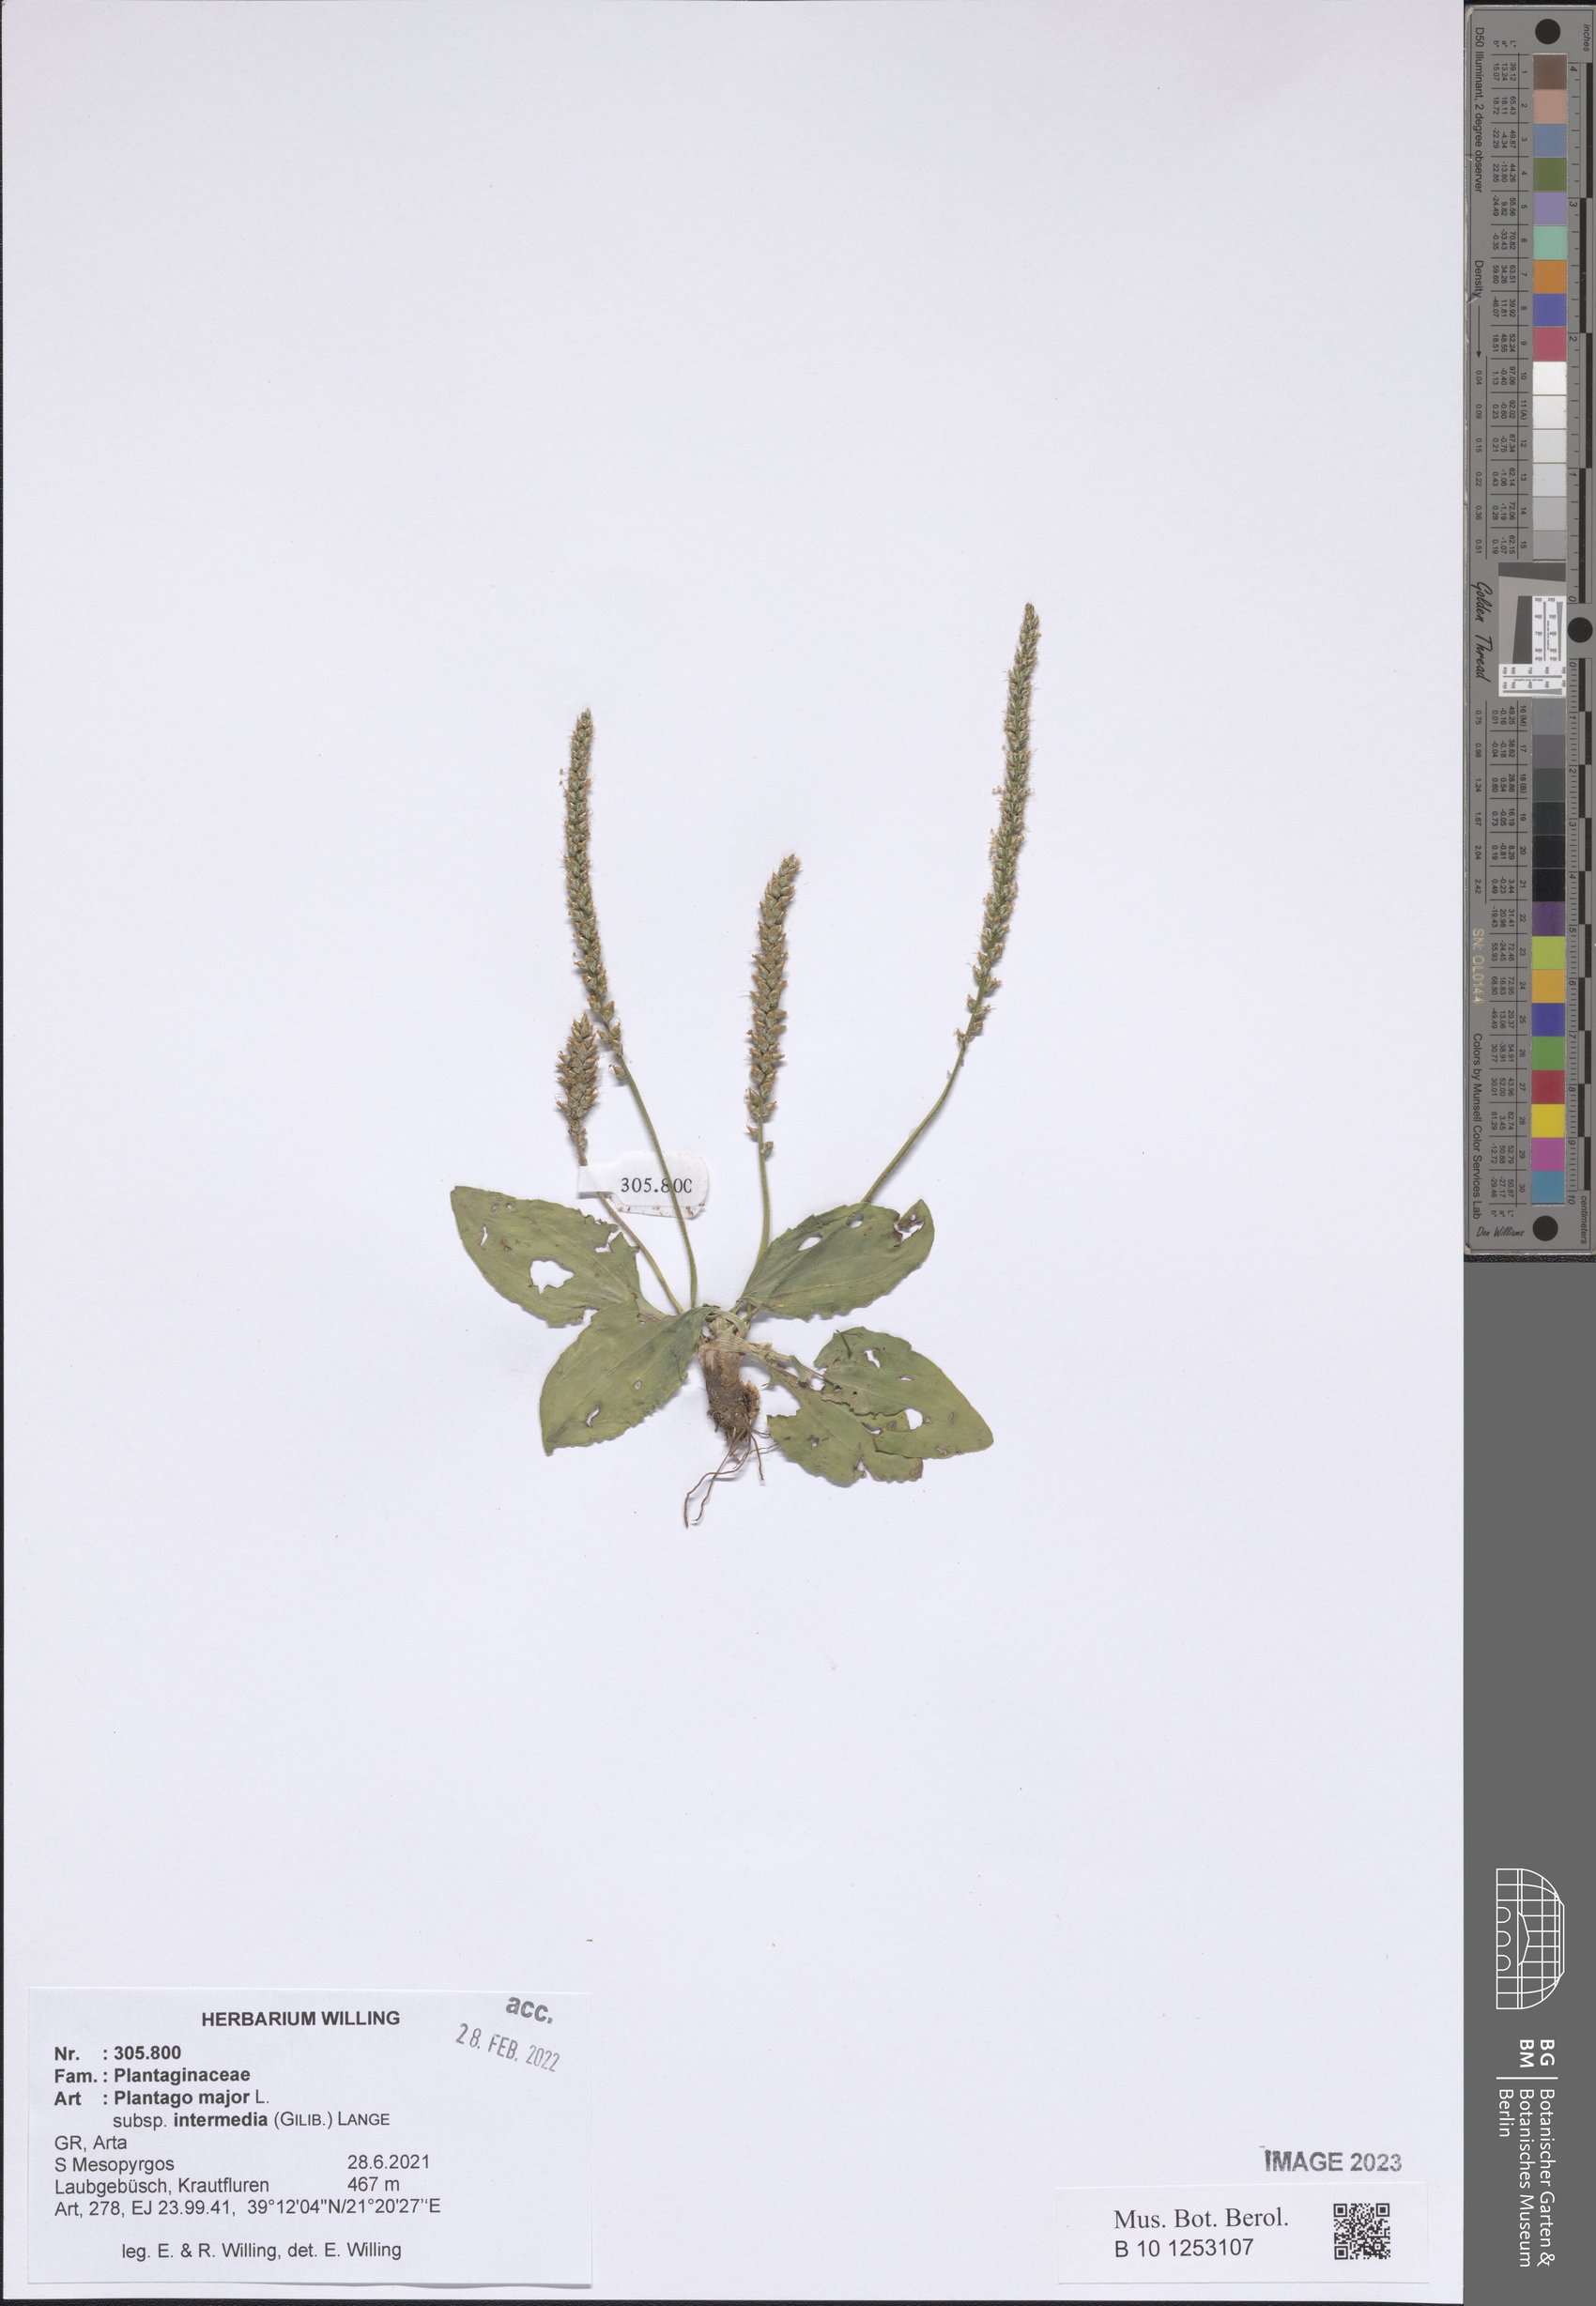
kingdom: Plantae
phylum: Tracheophyta
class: Magnoliopsida
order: Lamiales
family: Plantaginaceae
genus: Plantago
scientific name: Plantago uliginosa
